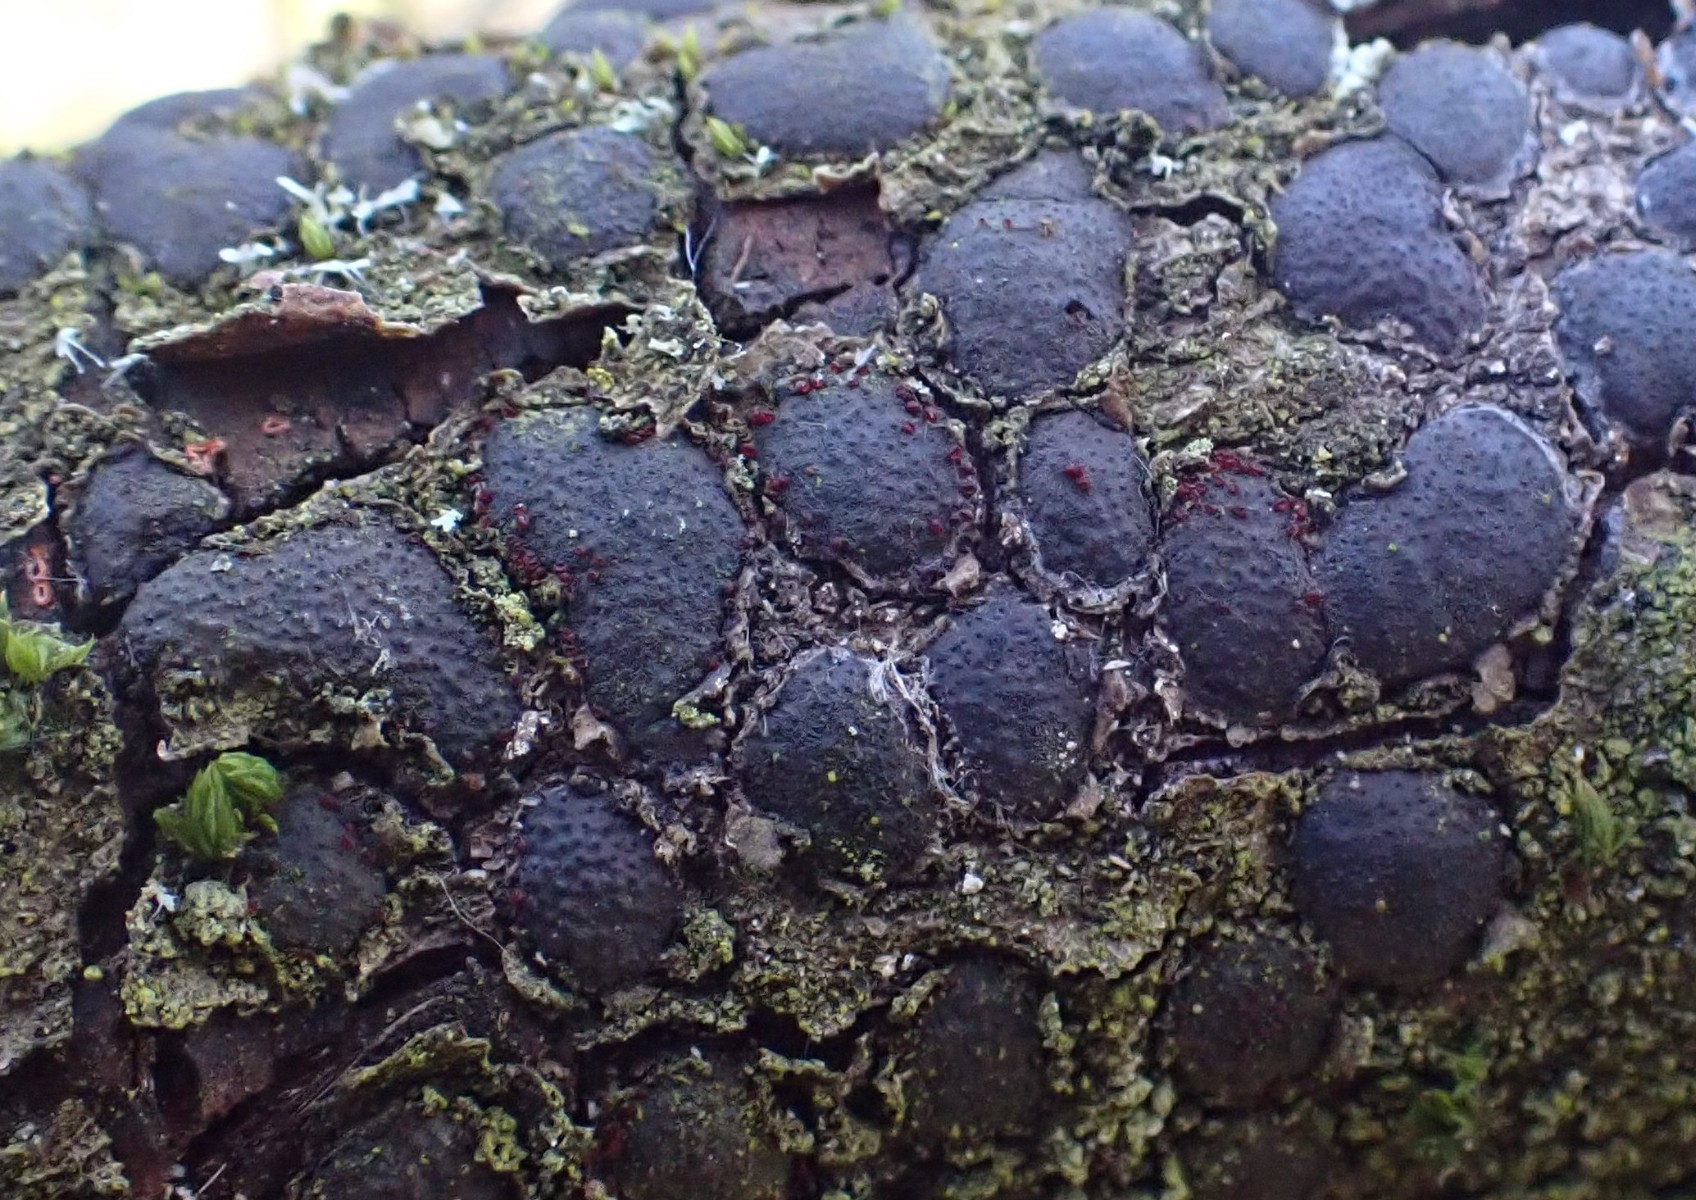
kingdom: Fungi
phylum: Ascomycota
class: Sordariomycetes
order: Hypocreales
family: Nectriaceae
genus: Dialonectria
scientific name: Dialonectria diatrypicola
